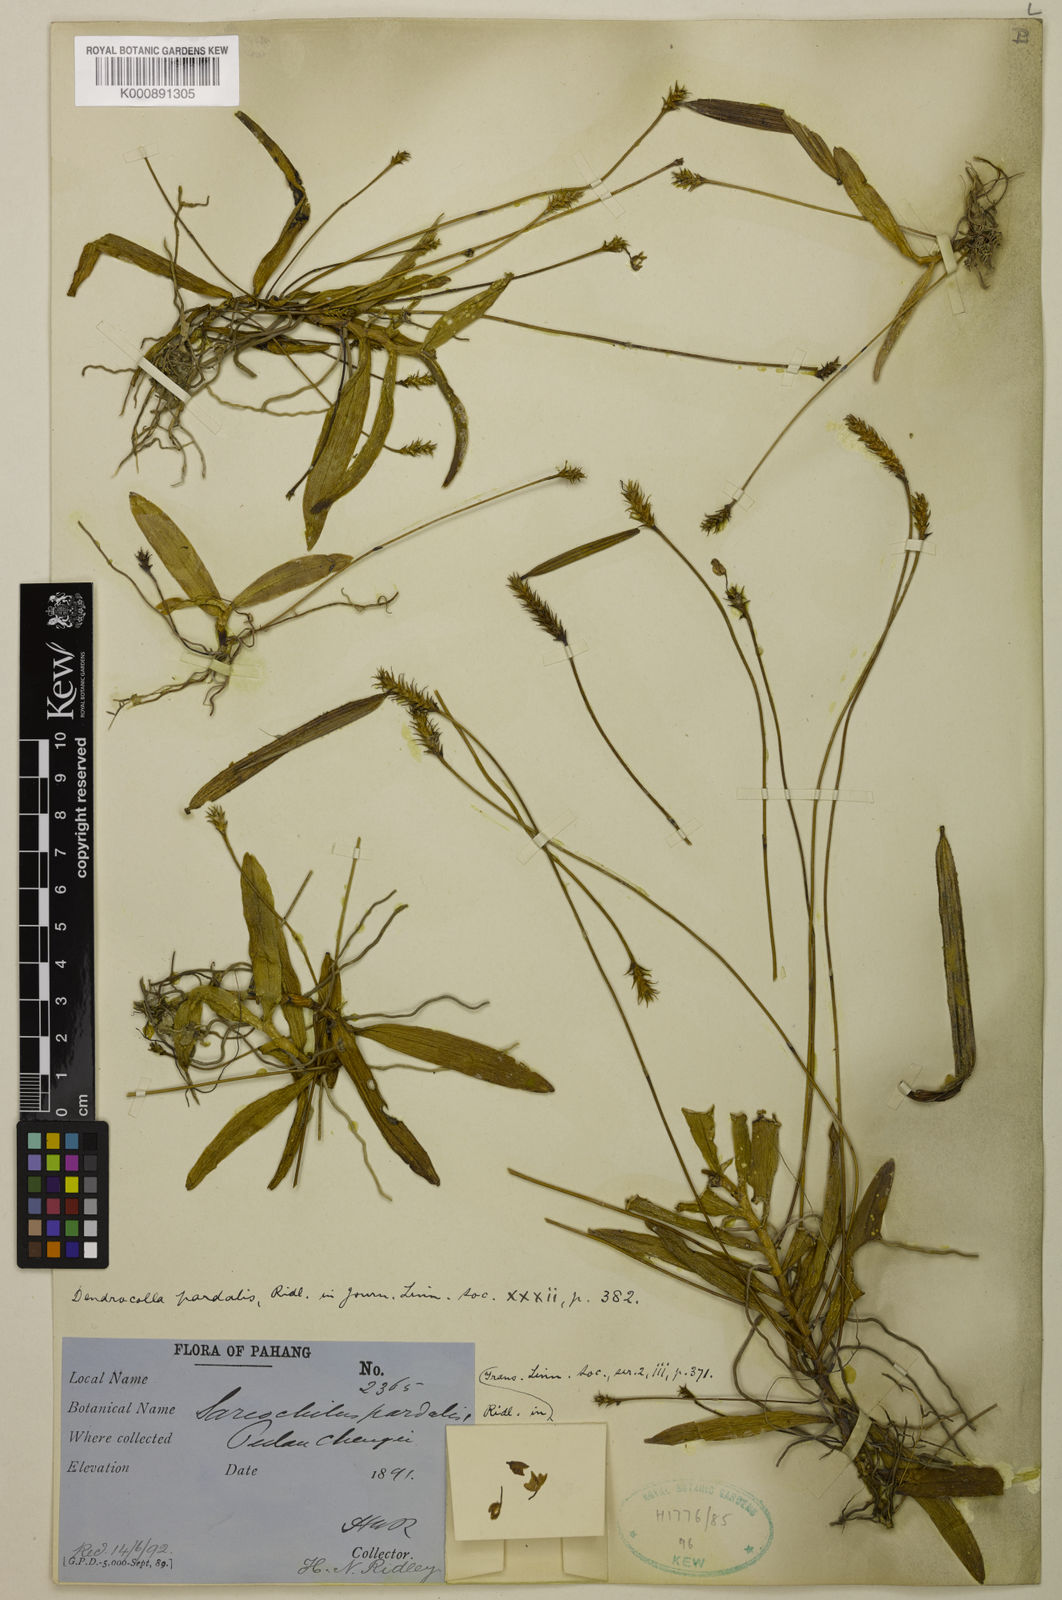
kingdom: Plantae
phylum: Tracheophyta
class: Liliopsida
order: Asparagales
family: Orchidaceae
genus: Thrixspermum
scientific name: Thrixspermum pardale
